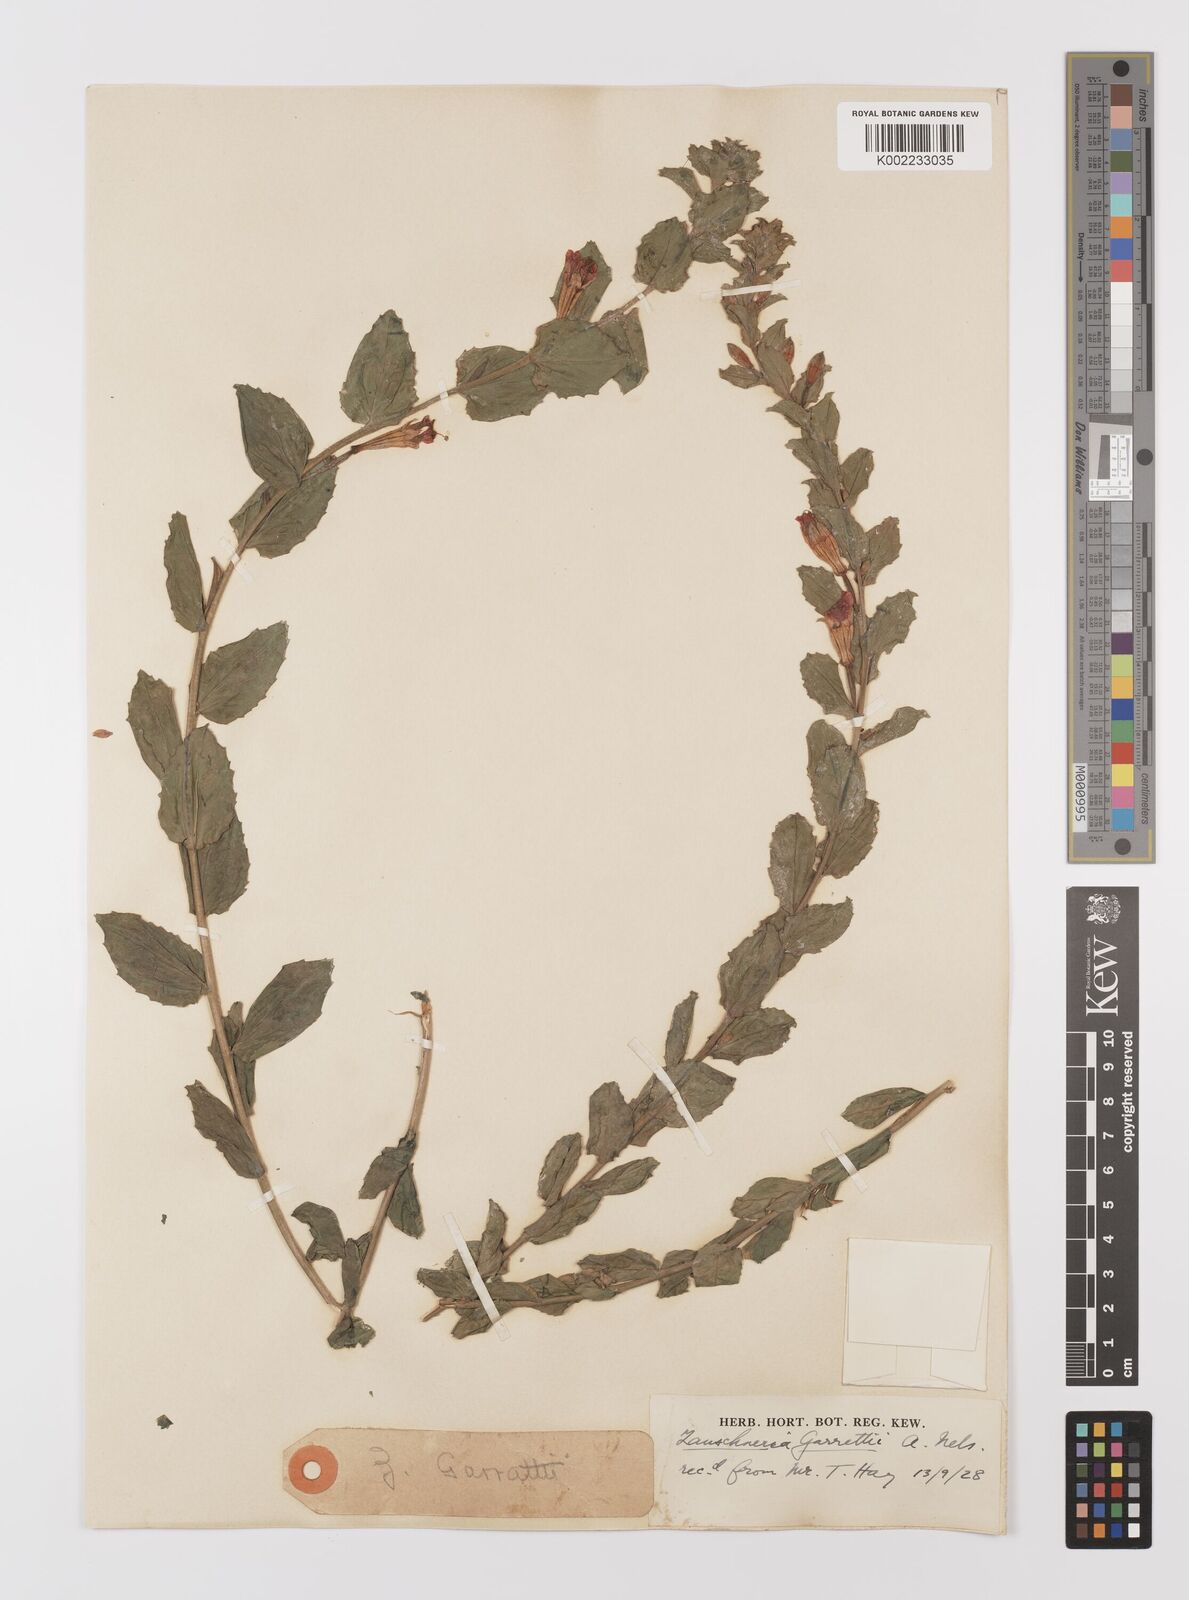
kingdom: Plantae
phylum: Tracheophyta
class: Magnoliopsida
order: Myrtales
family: Onagraceae
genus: Epilobium
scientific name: Epilobium
